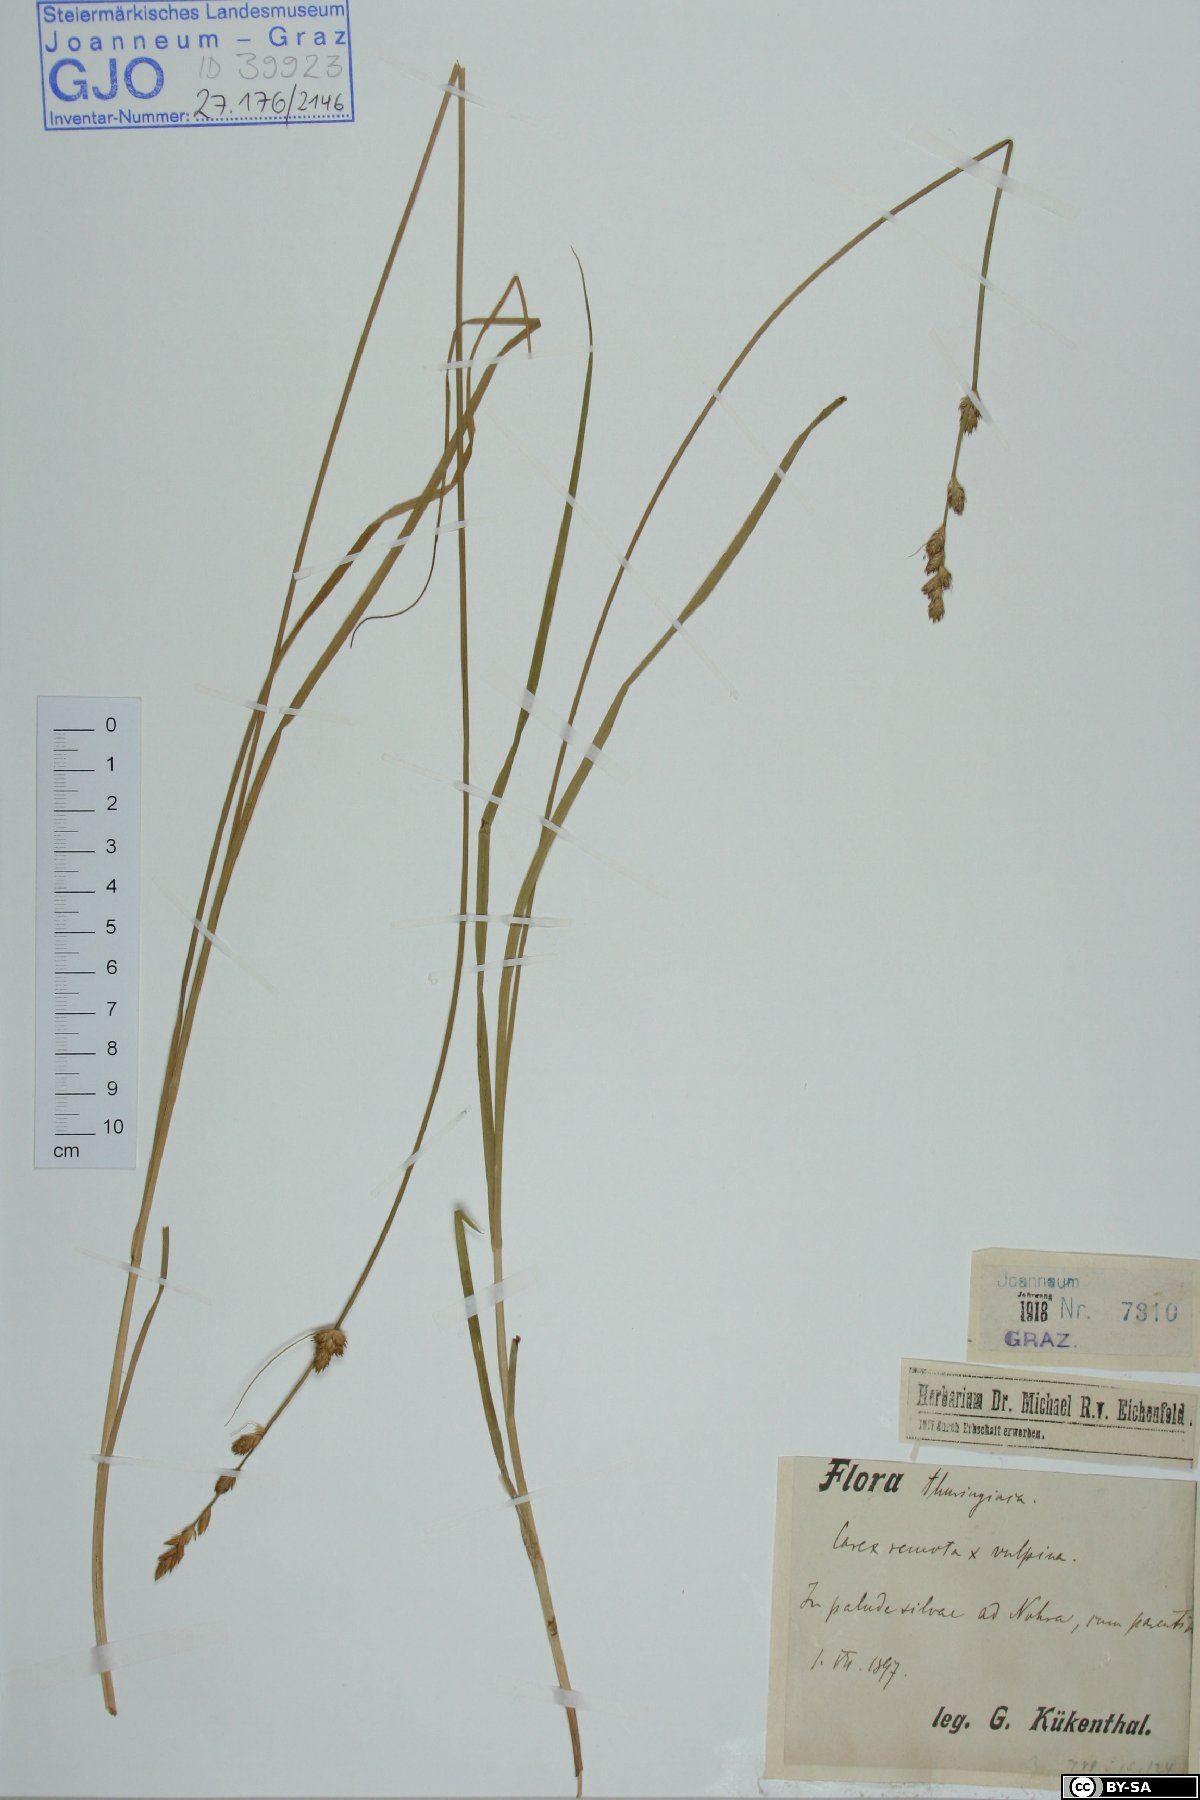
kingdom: Plantae
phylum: Tracheophyta
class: Liliopsida
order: Poales
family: Cyperaceae
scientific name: Cyperaceae
